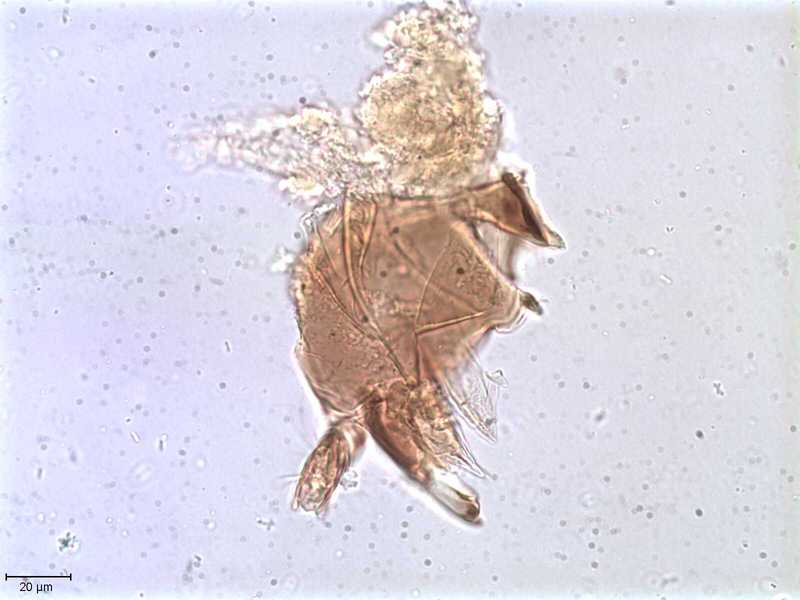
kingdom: Animalia
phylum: Arthropoda
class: Arachnida
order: Sarcoptiformes
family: Oribatulidae
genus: Oribatula
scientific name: Oribatula
